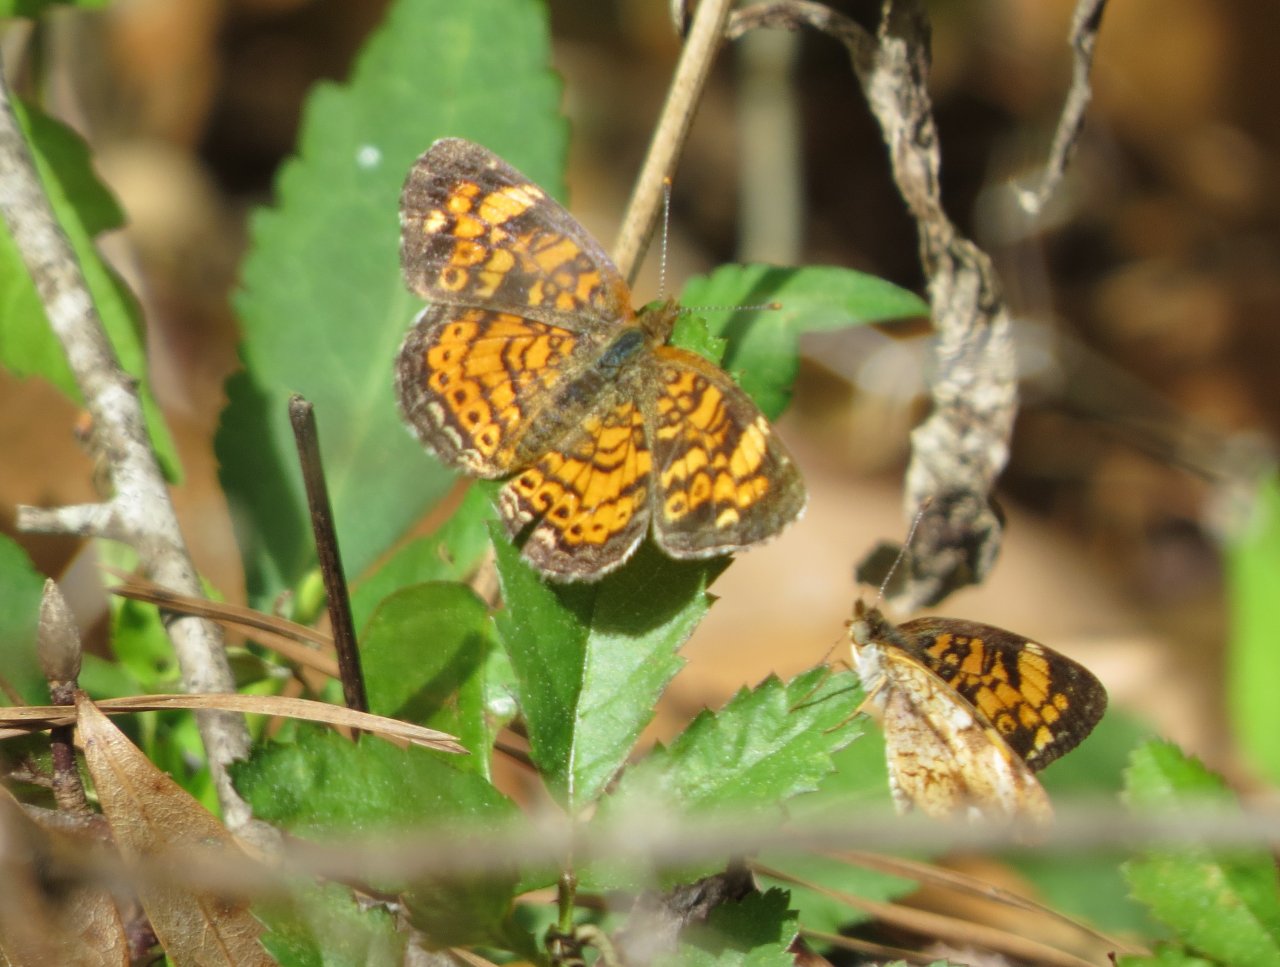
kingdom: Animalia
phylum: Arthropoda
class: Insecta
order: Lepidoptera
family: Nymphalidae
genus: Phyciodes
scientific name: Phyciodes tharos
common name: Pearl Crescent
